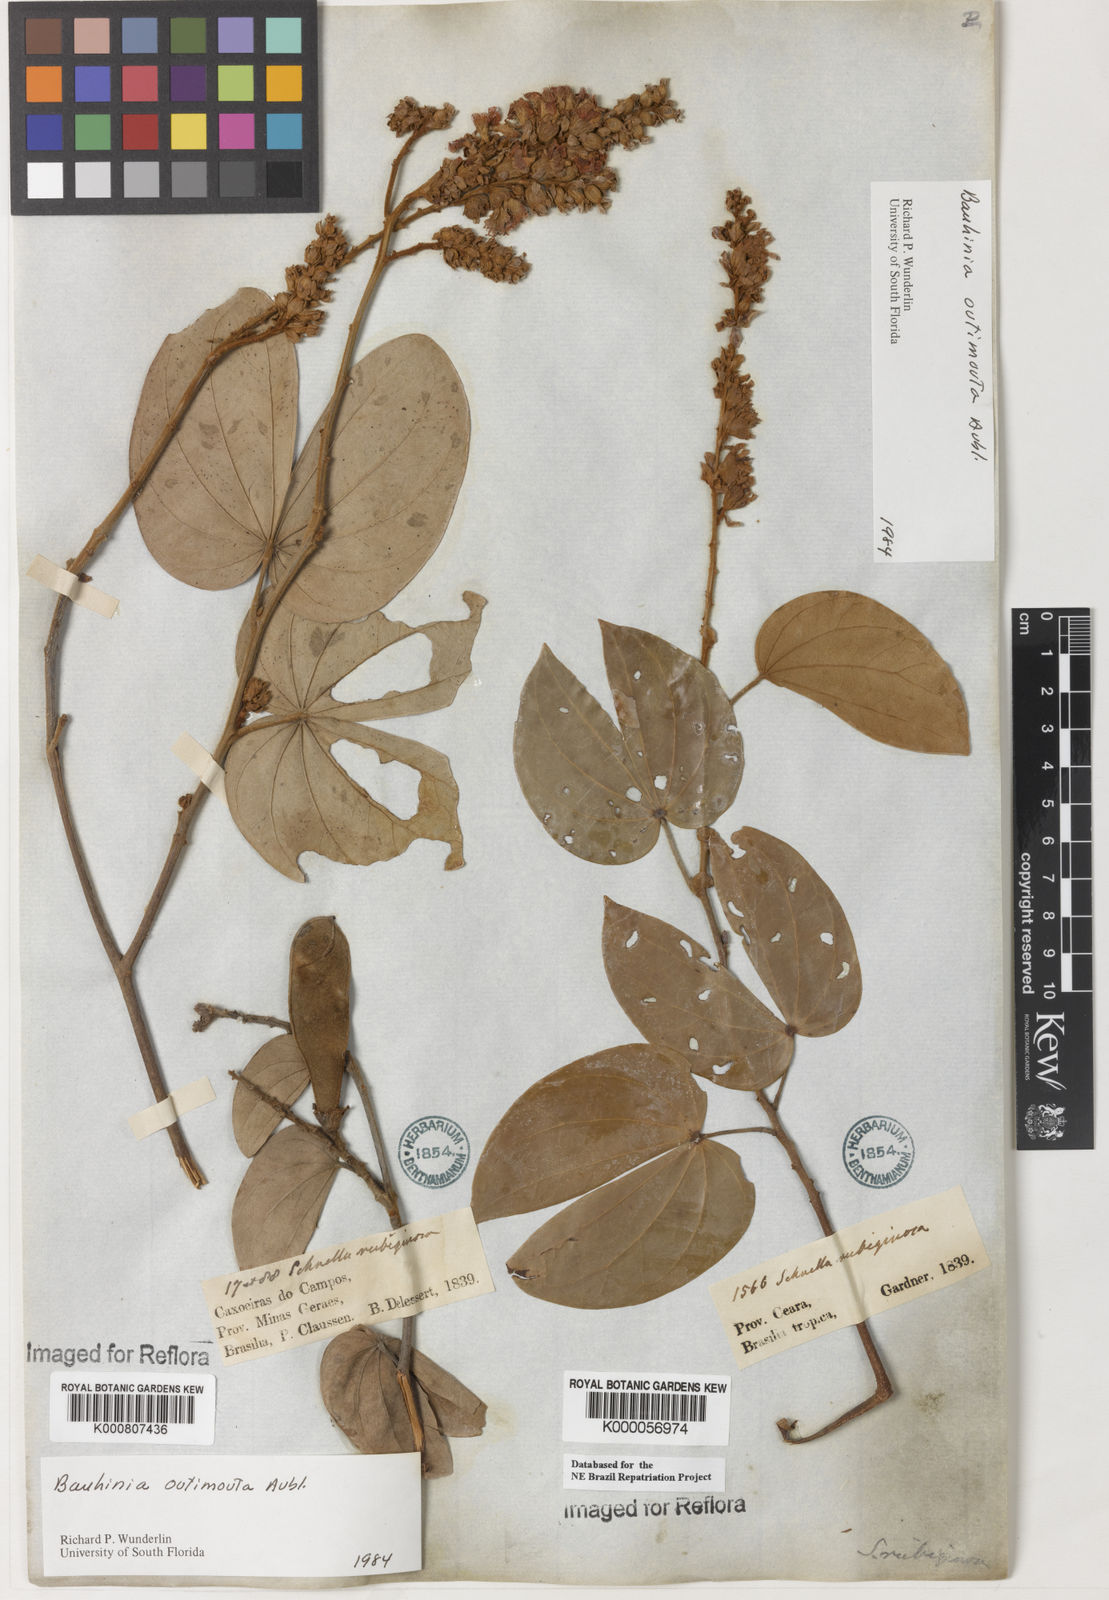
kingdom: Plantae
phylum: Tracheophyta
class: Magnoliopsida
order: Fabales
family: Fabaceae
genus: Schnella
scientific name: Schnella outimouta
